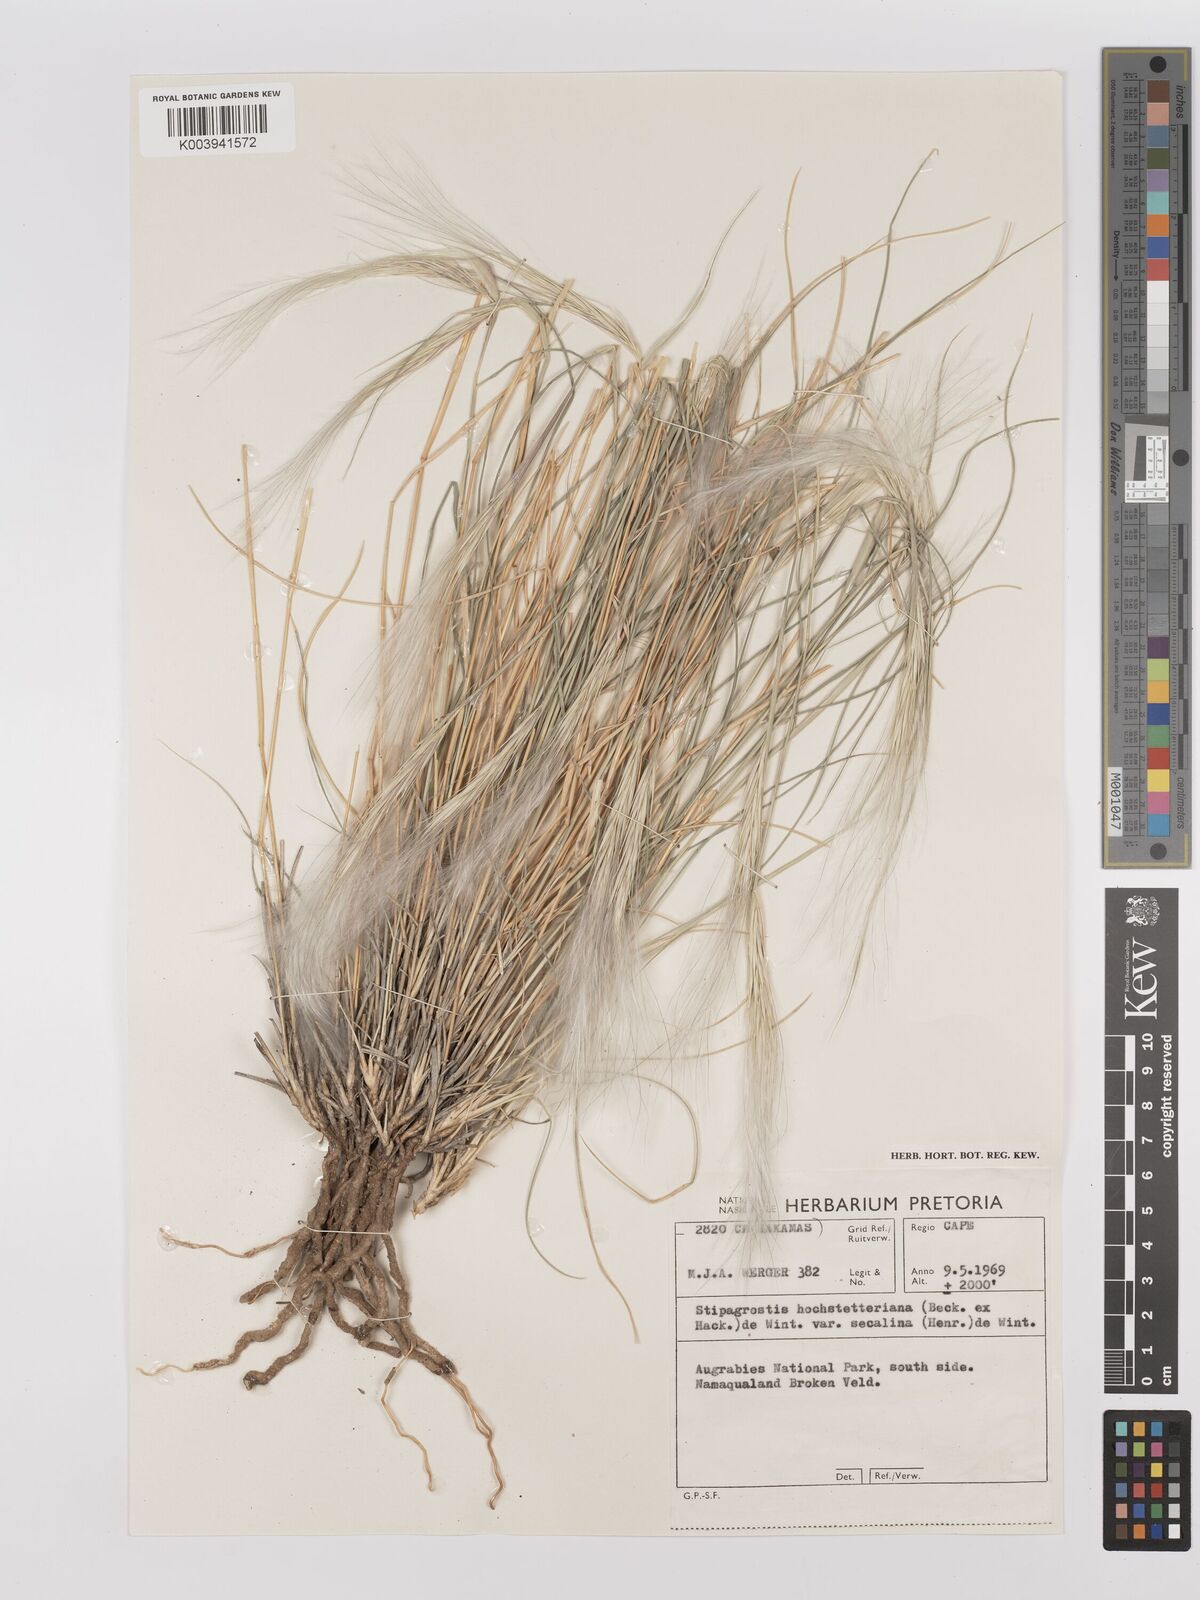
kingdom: Plantae
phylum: Tracheophyta
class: Liliopsida
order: Poales
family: Poaceae
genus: Stipagrostis
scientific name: Stipagrostis hochstetteriana
